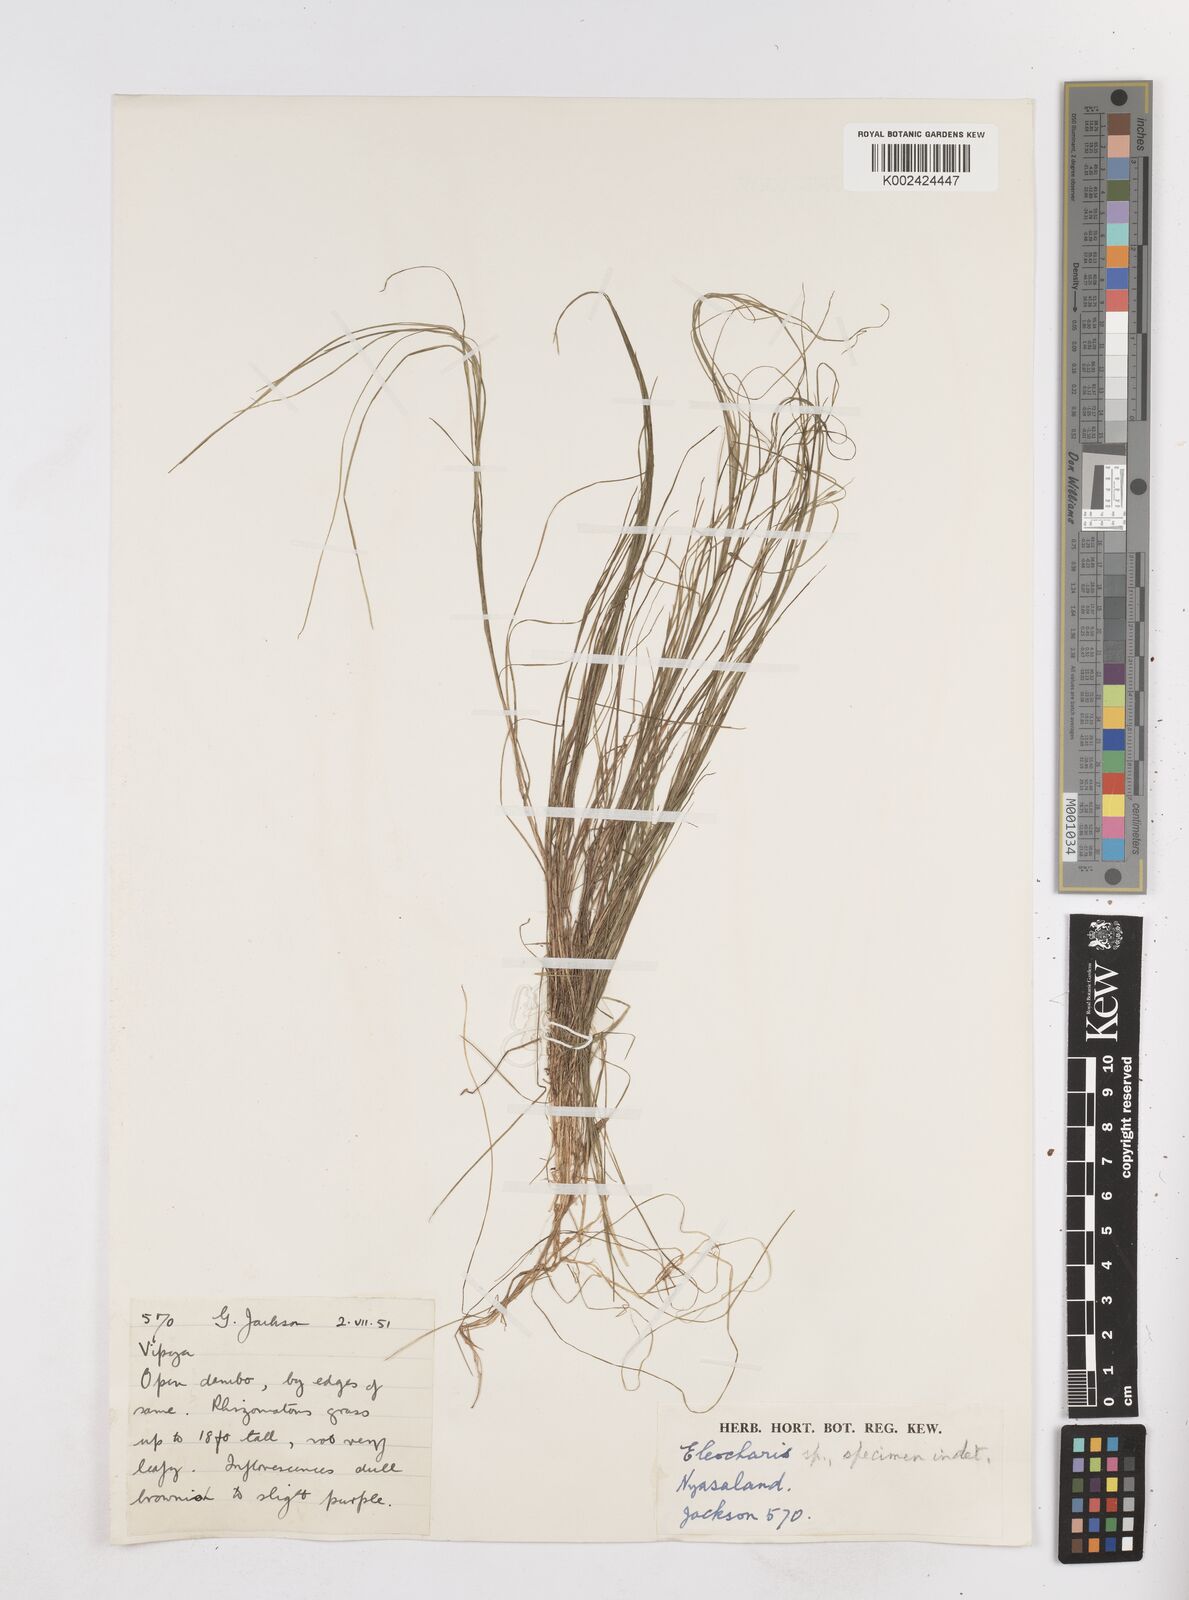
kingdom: Plantae
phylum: Tracheophyta
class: Liliopsida
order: Poales
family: Cyperaceae
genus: Eleocharis
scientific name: Eleocharis
